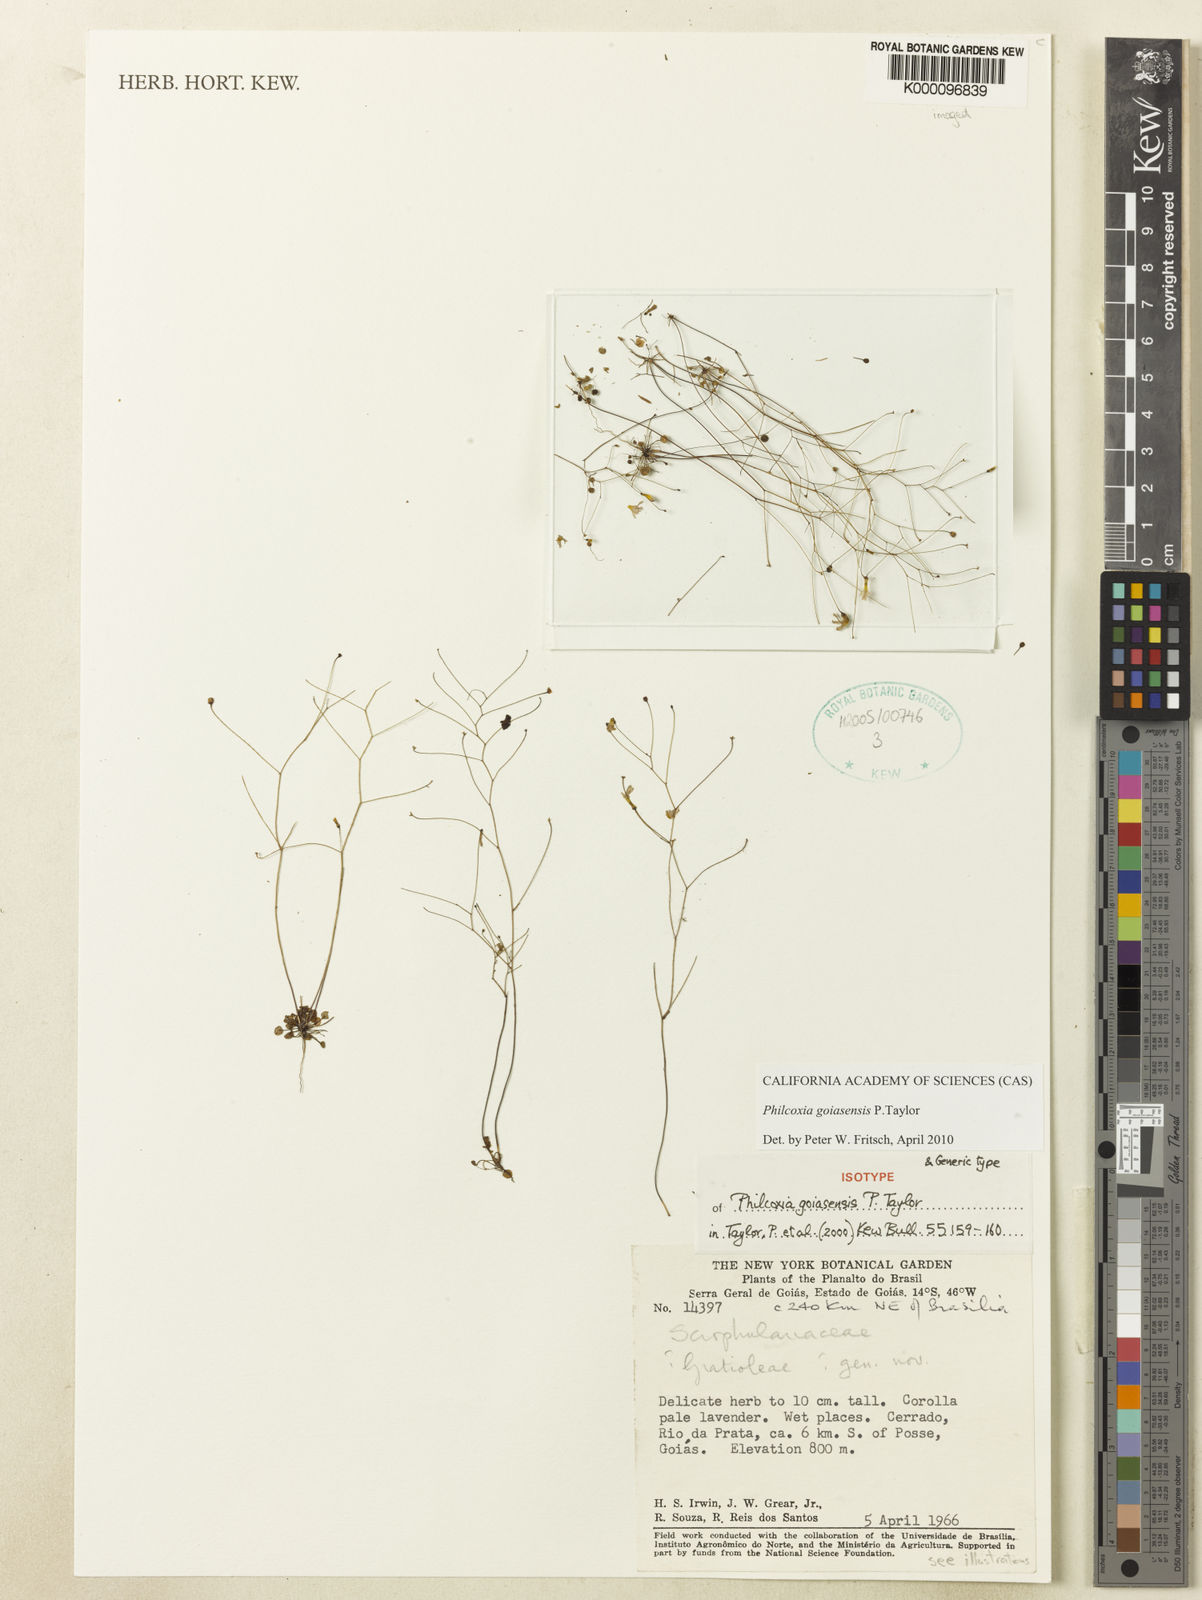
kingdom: Plantae
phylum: Tracheophyta
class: Magnoliopsida
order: Lamiales
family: Plantaginaceae
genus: Philcoxia
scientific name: Philcoxia goiasensis
